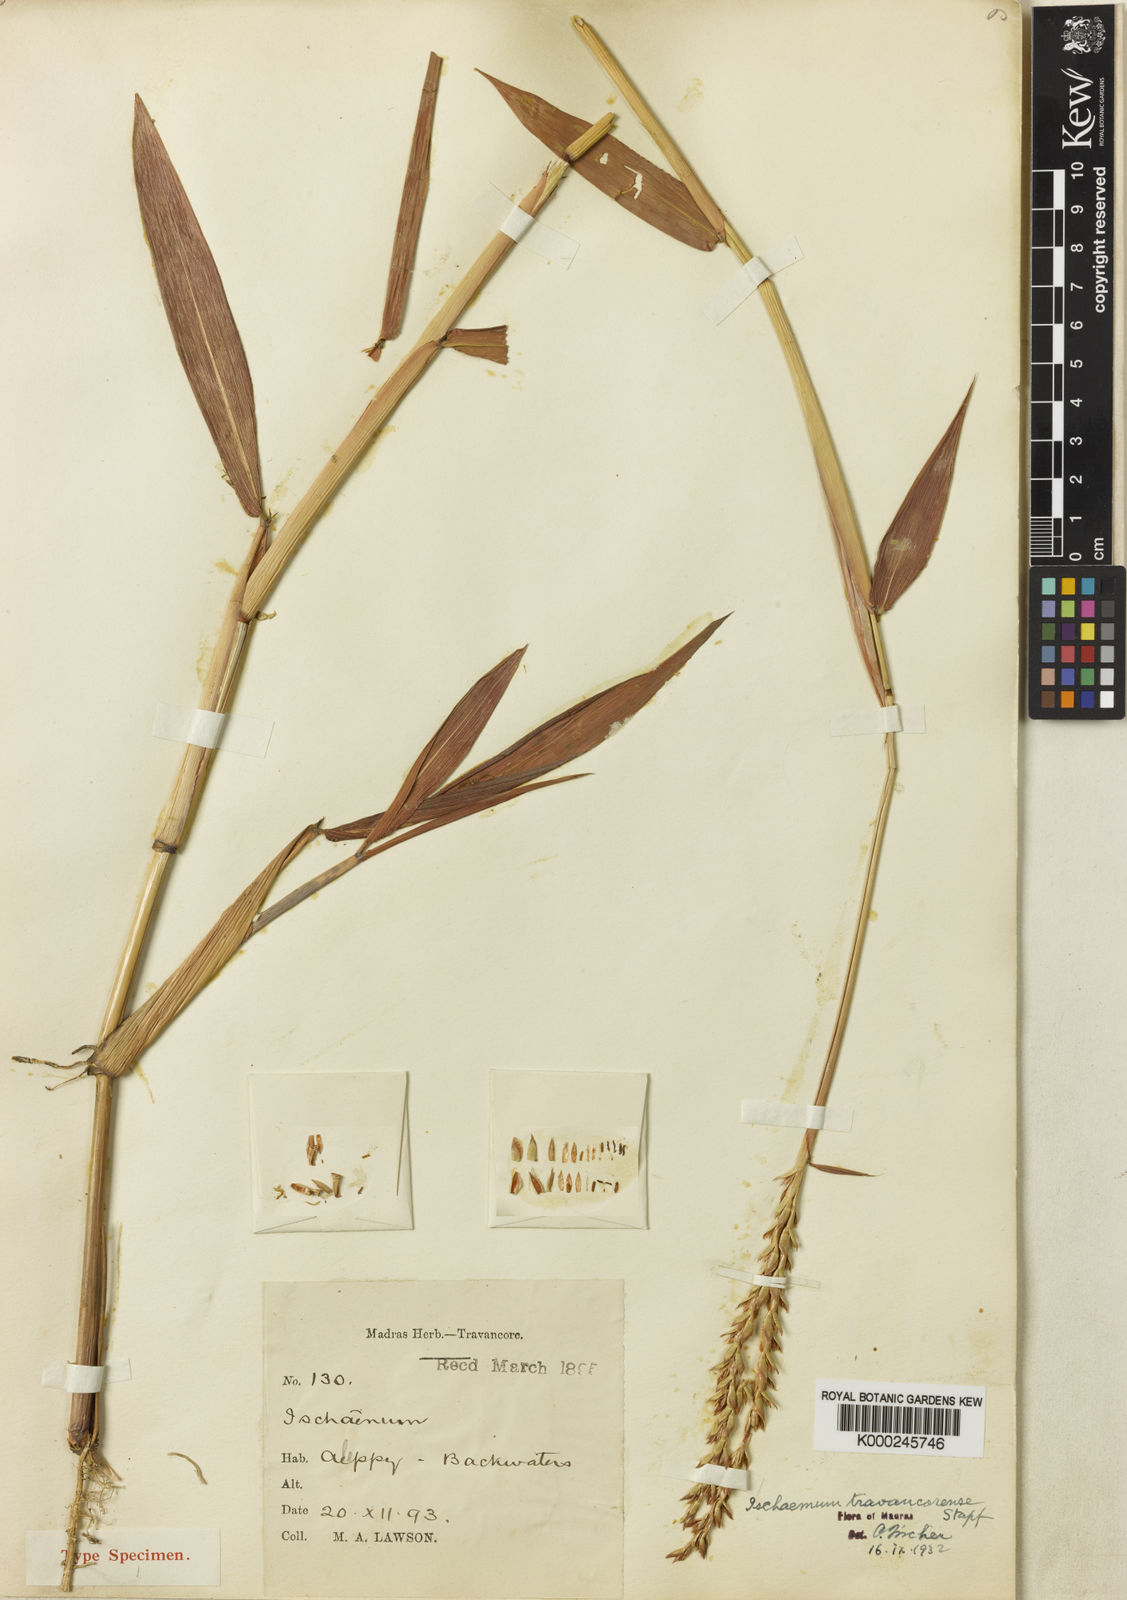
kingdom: Plantae
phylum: Tracheophyta
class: Liliopsida
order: Poales
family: Poaceae
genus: Ischaemum
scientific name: Ischaemum travancorense
